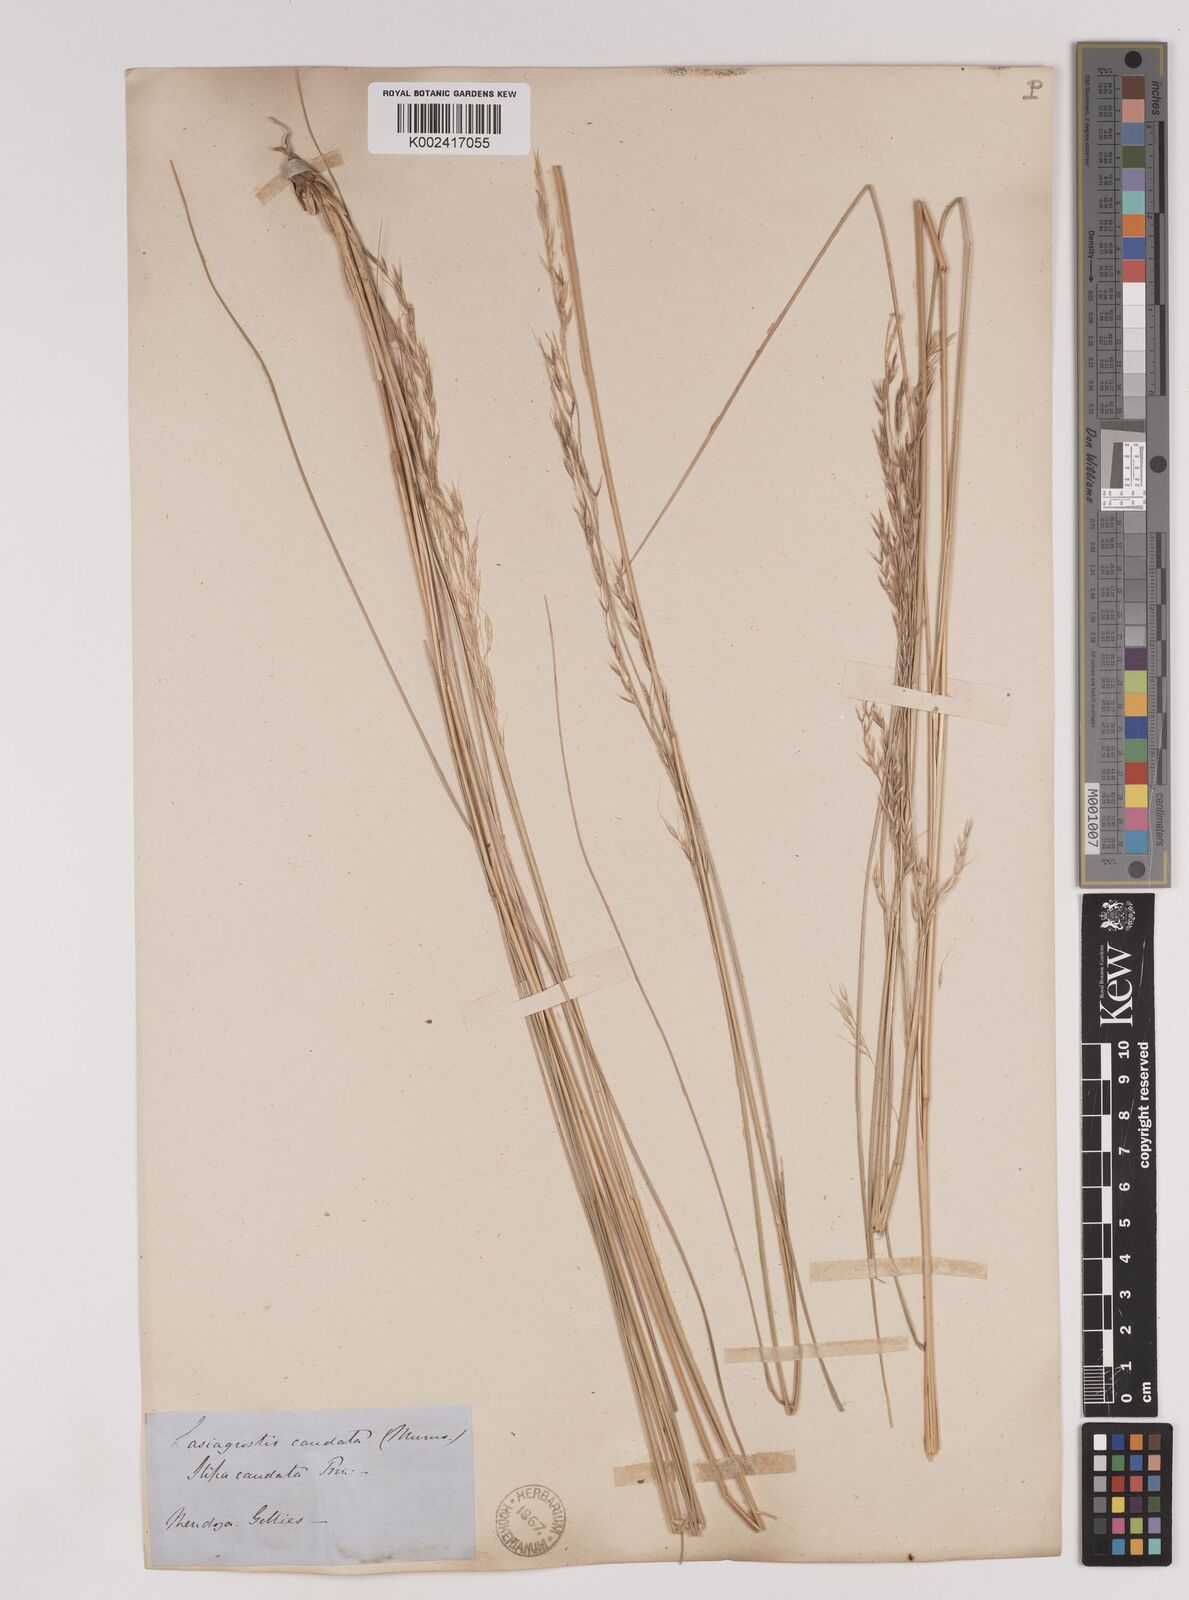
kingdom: Plantae
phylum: Tracheophyta
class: Liliopsida
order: Poales
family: Poaceae
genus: Amelichloa
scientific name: Amelichloa brachychaeta
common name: Shortbristled needlegrass
